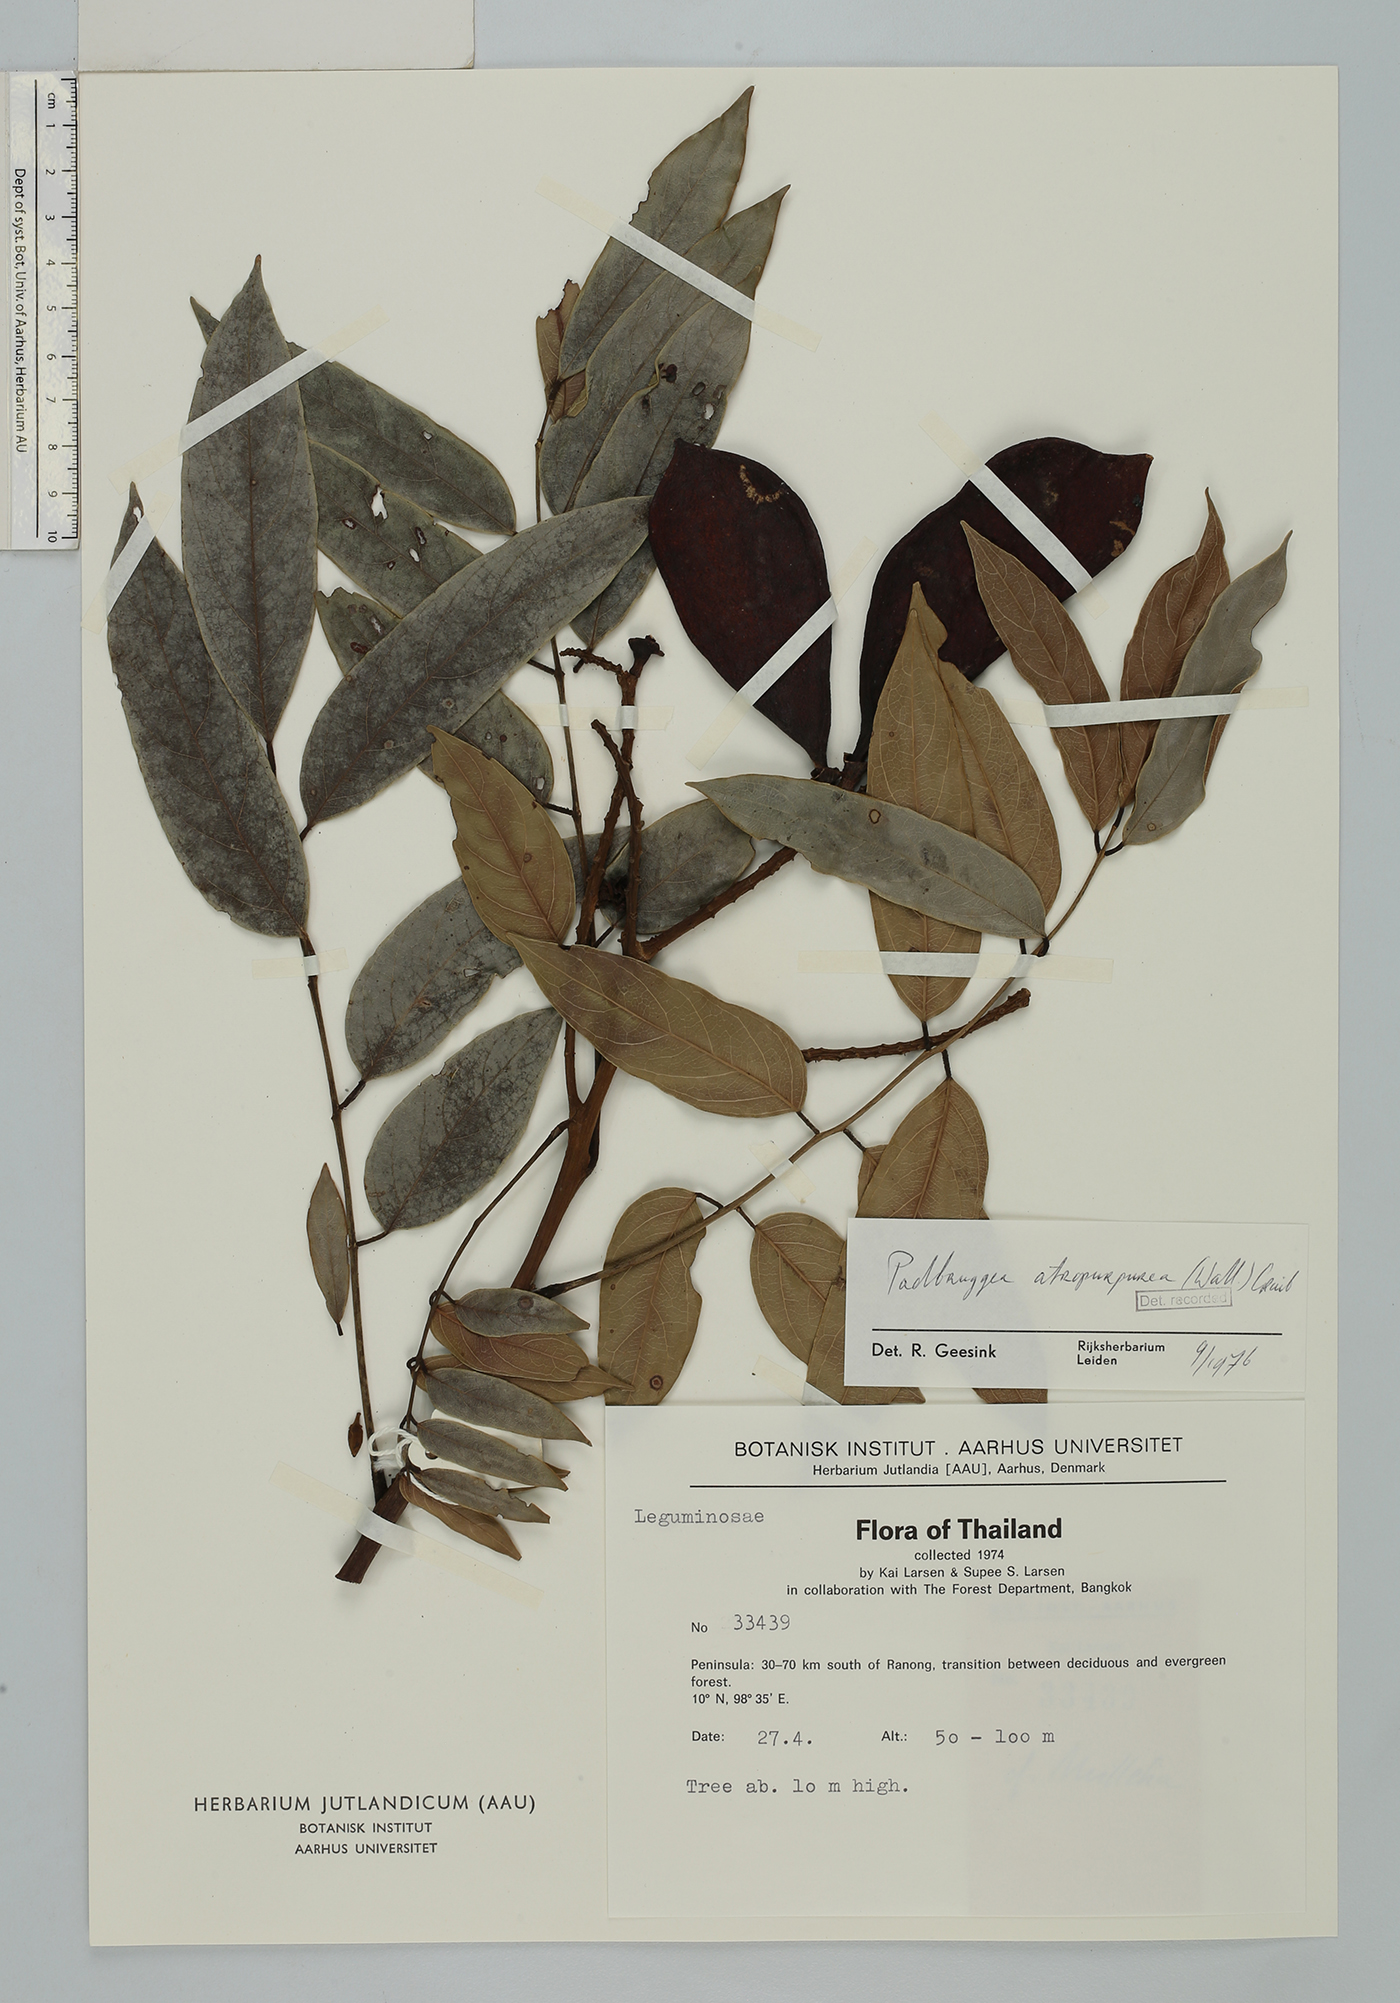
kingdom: Plantae
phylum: Tracheophyta
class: Magnoliopsida
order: Fabales
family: Fabaceae
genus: Adinobotrys
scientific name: Adinobotrys atropurpureus
